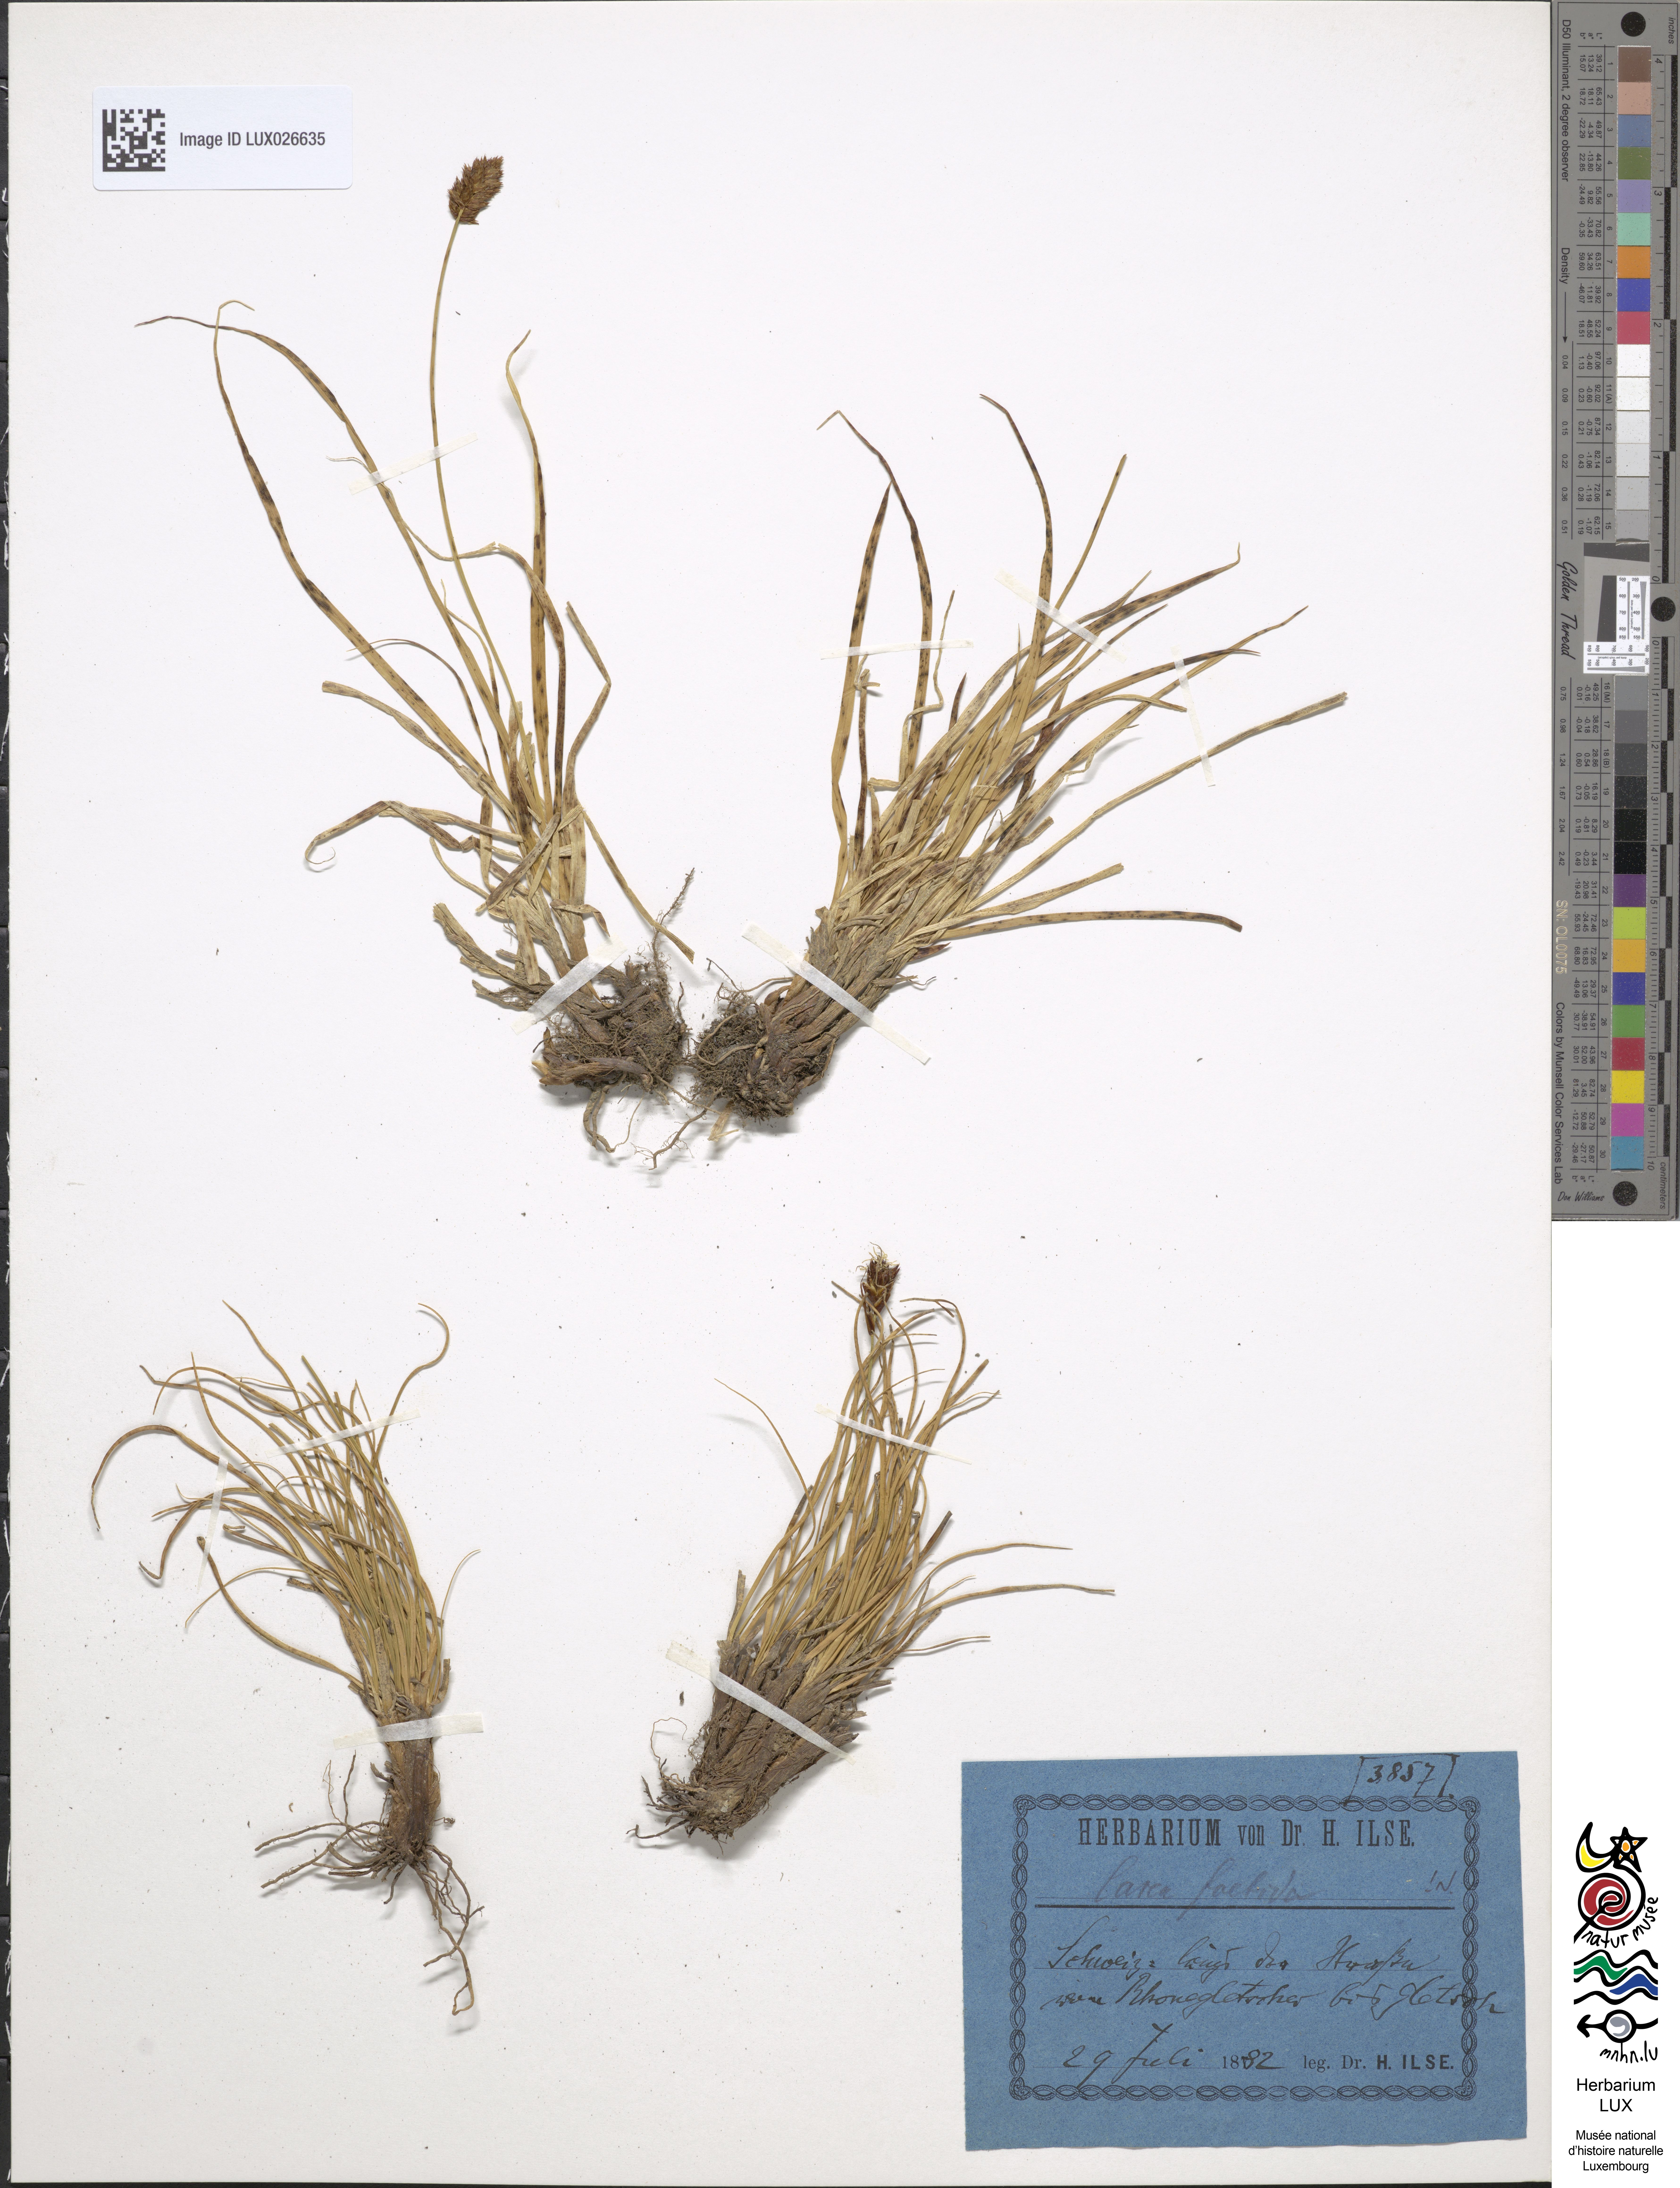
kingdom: Plantae
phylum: Tracheophyta
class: Liliopsida
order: Poales
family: Cyperaceae
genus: Carex
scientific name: Carex foetida
